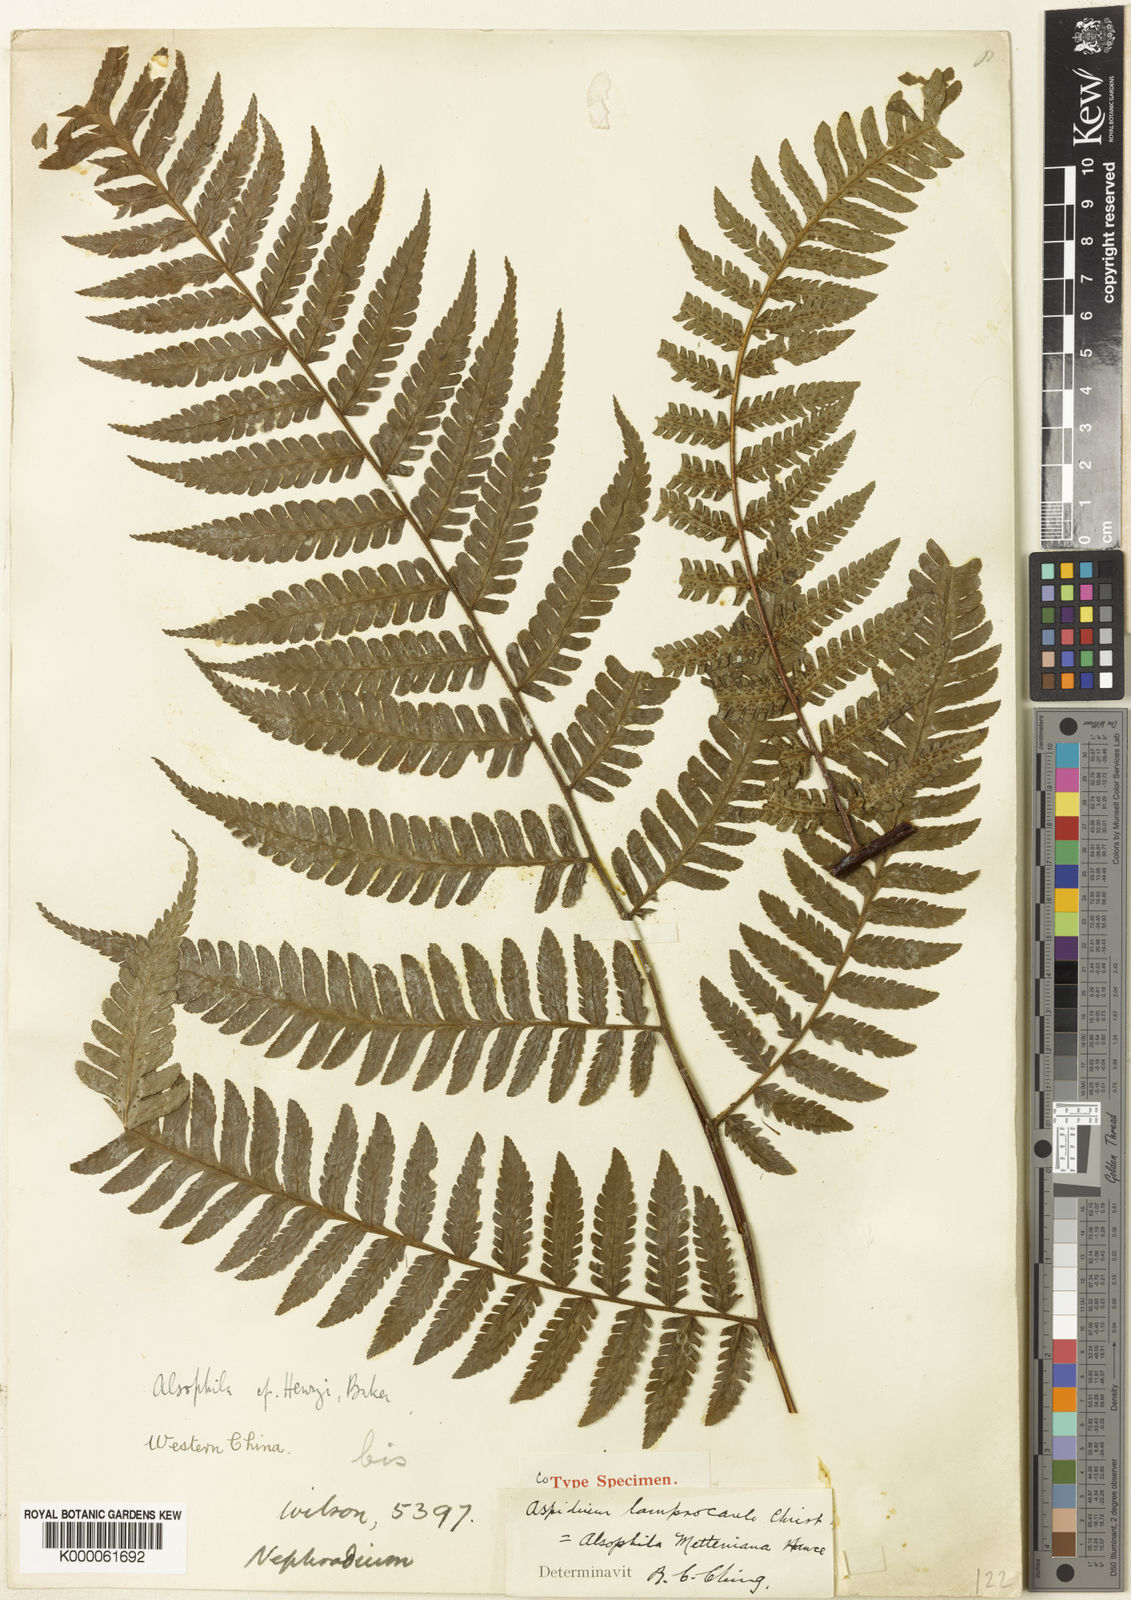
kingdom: Plantae
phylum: Tracheophyta
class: Polypodiopsida
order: Cyatheales
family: Cyatheaceae
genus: Gymnosphaera
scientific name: Gymnosphaera metteniana
